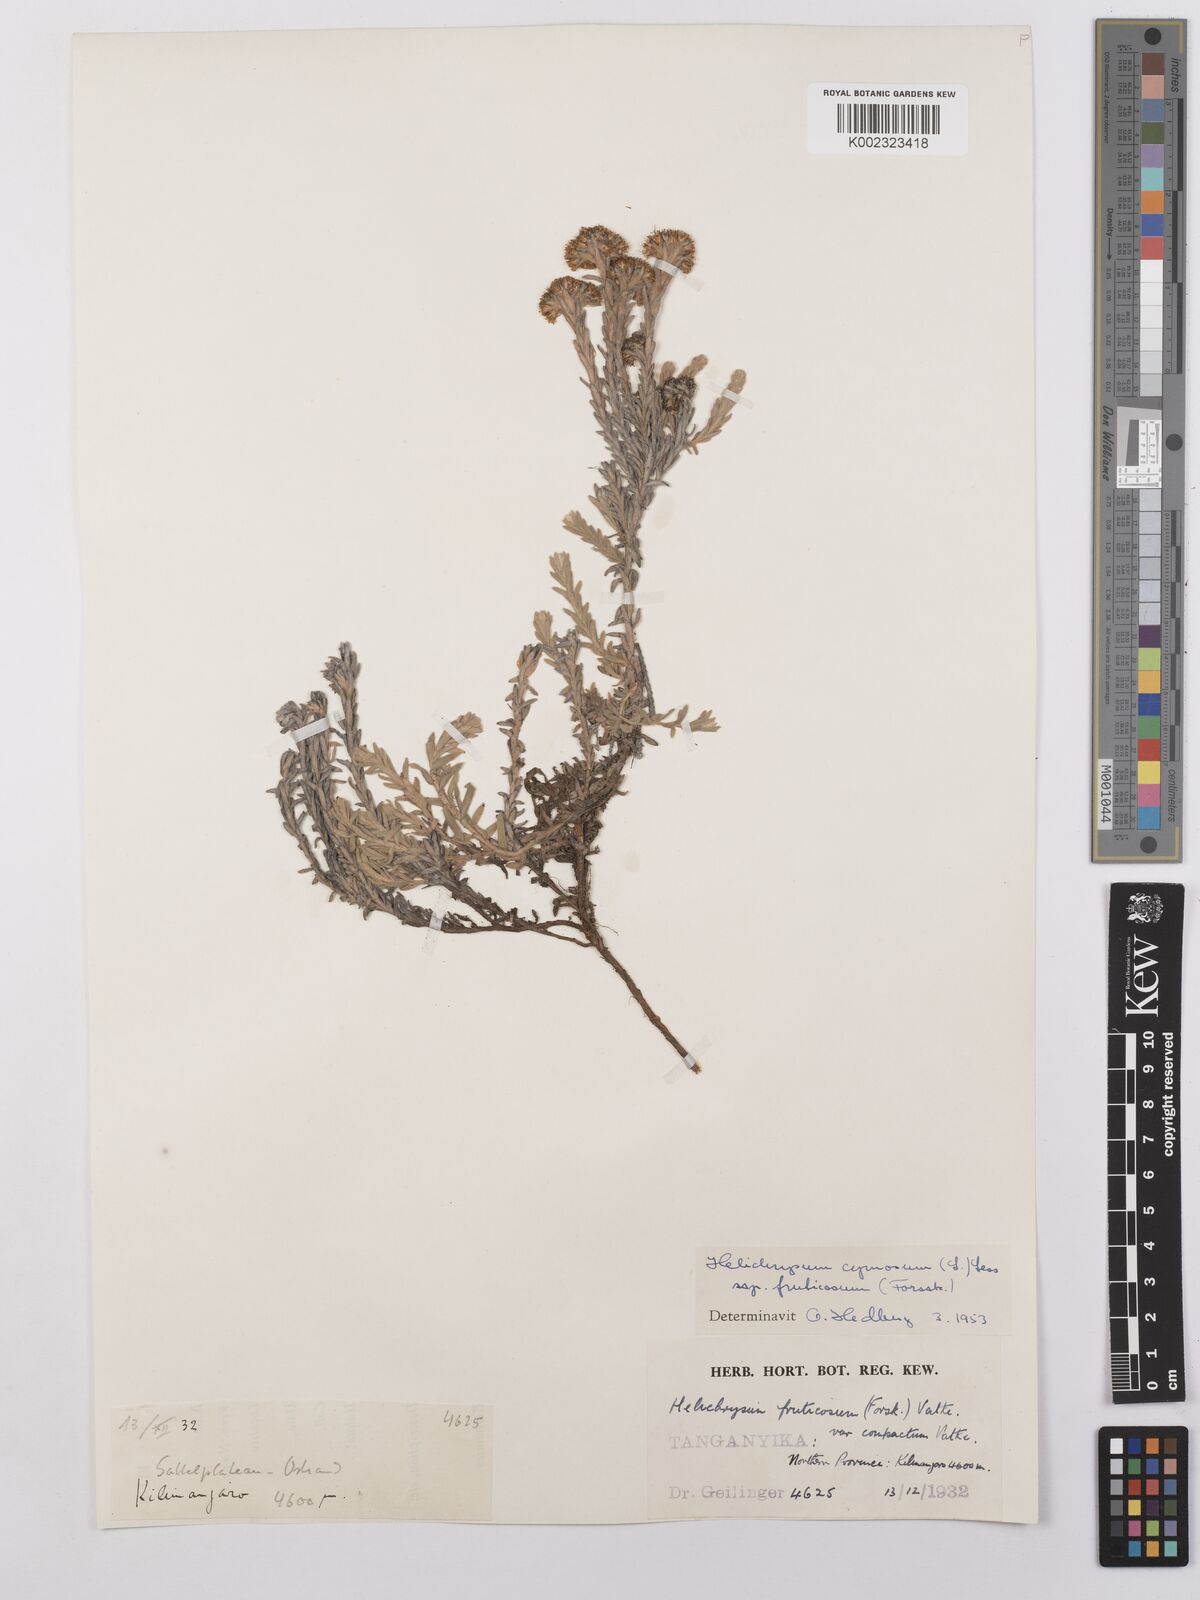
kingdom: Plantae
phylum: Tracheophyta
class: Magnoliopsida
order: Asterales
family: Asteraceae
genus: Helichrysum
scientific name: Helichrysum forskahlii
